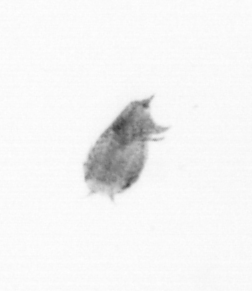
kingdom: Animalia
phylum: Arthropoda
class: Copepoda
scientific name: Copepoda
